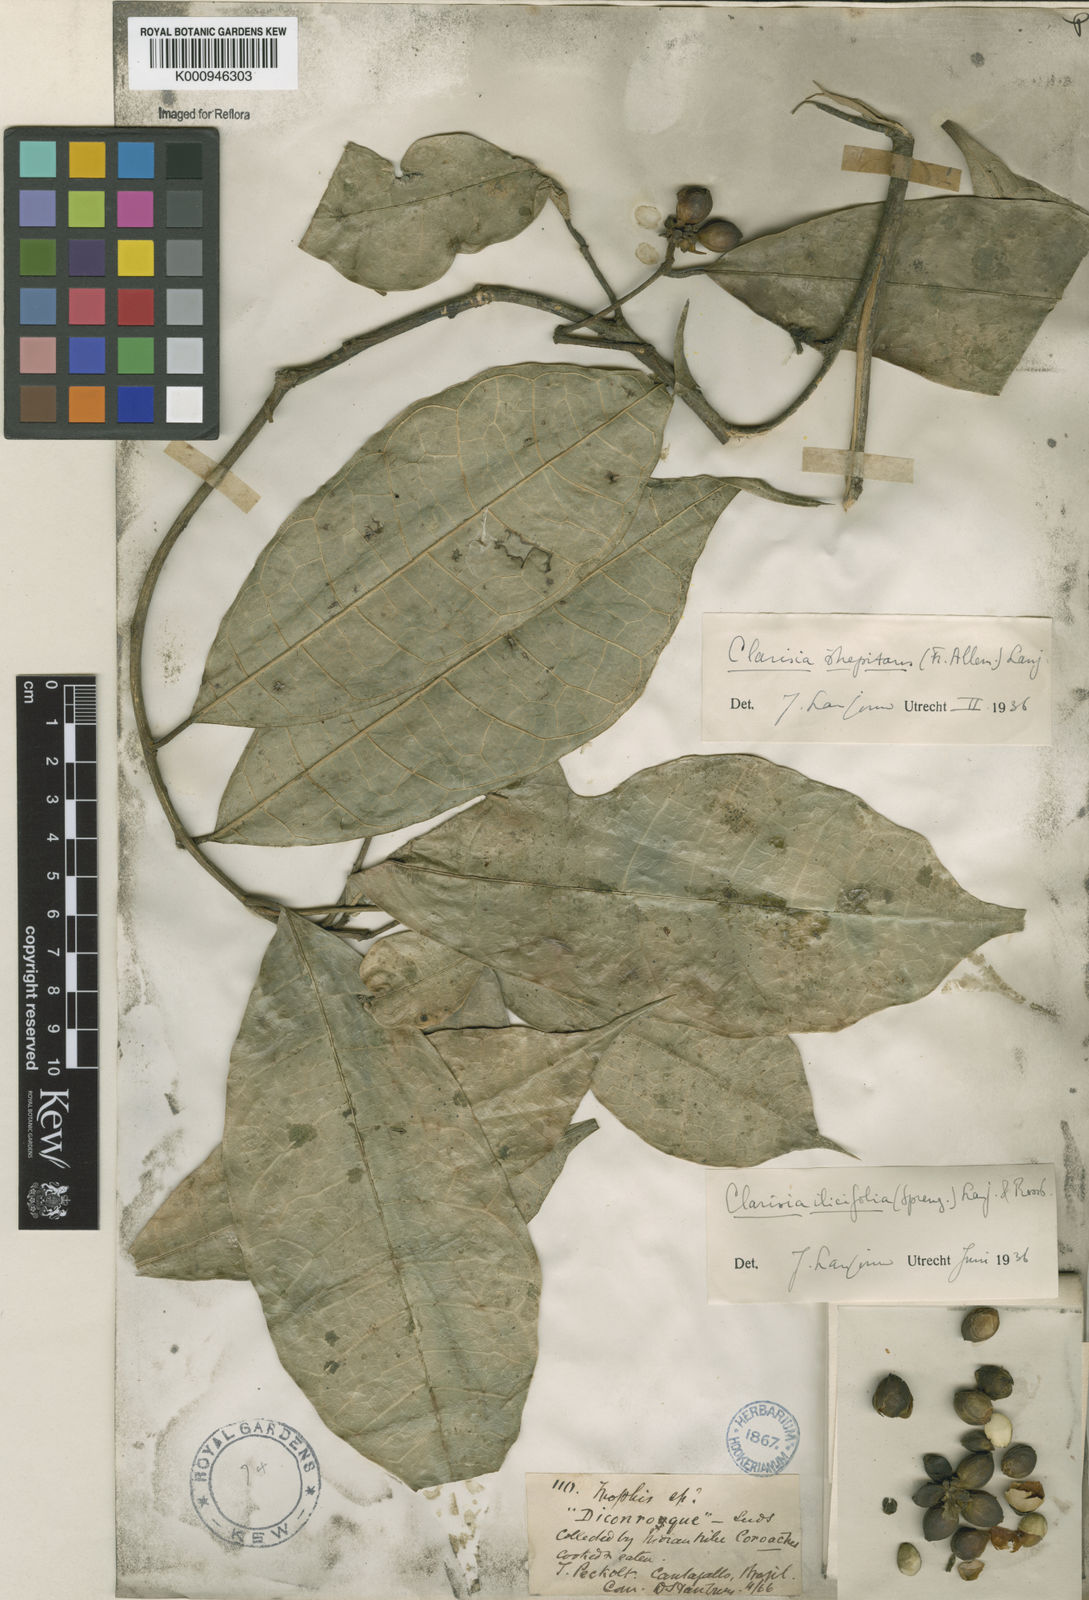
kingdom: Plantae
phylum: Tracheophyta
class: Magnoliopsida
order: Rosales
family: Moraceae
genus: Clarisia
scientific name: Clarisia ilicifolia
